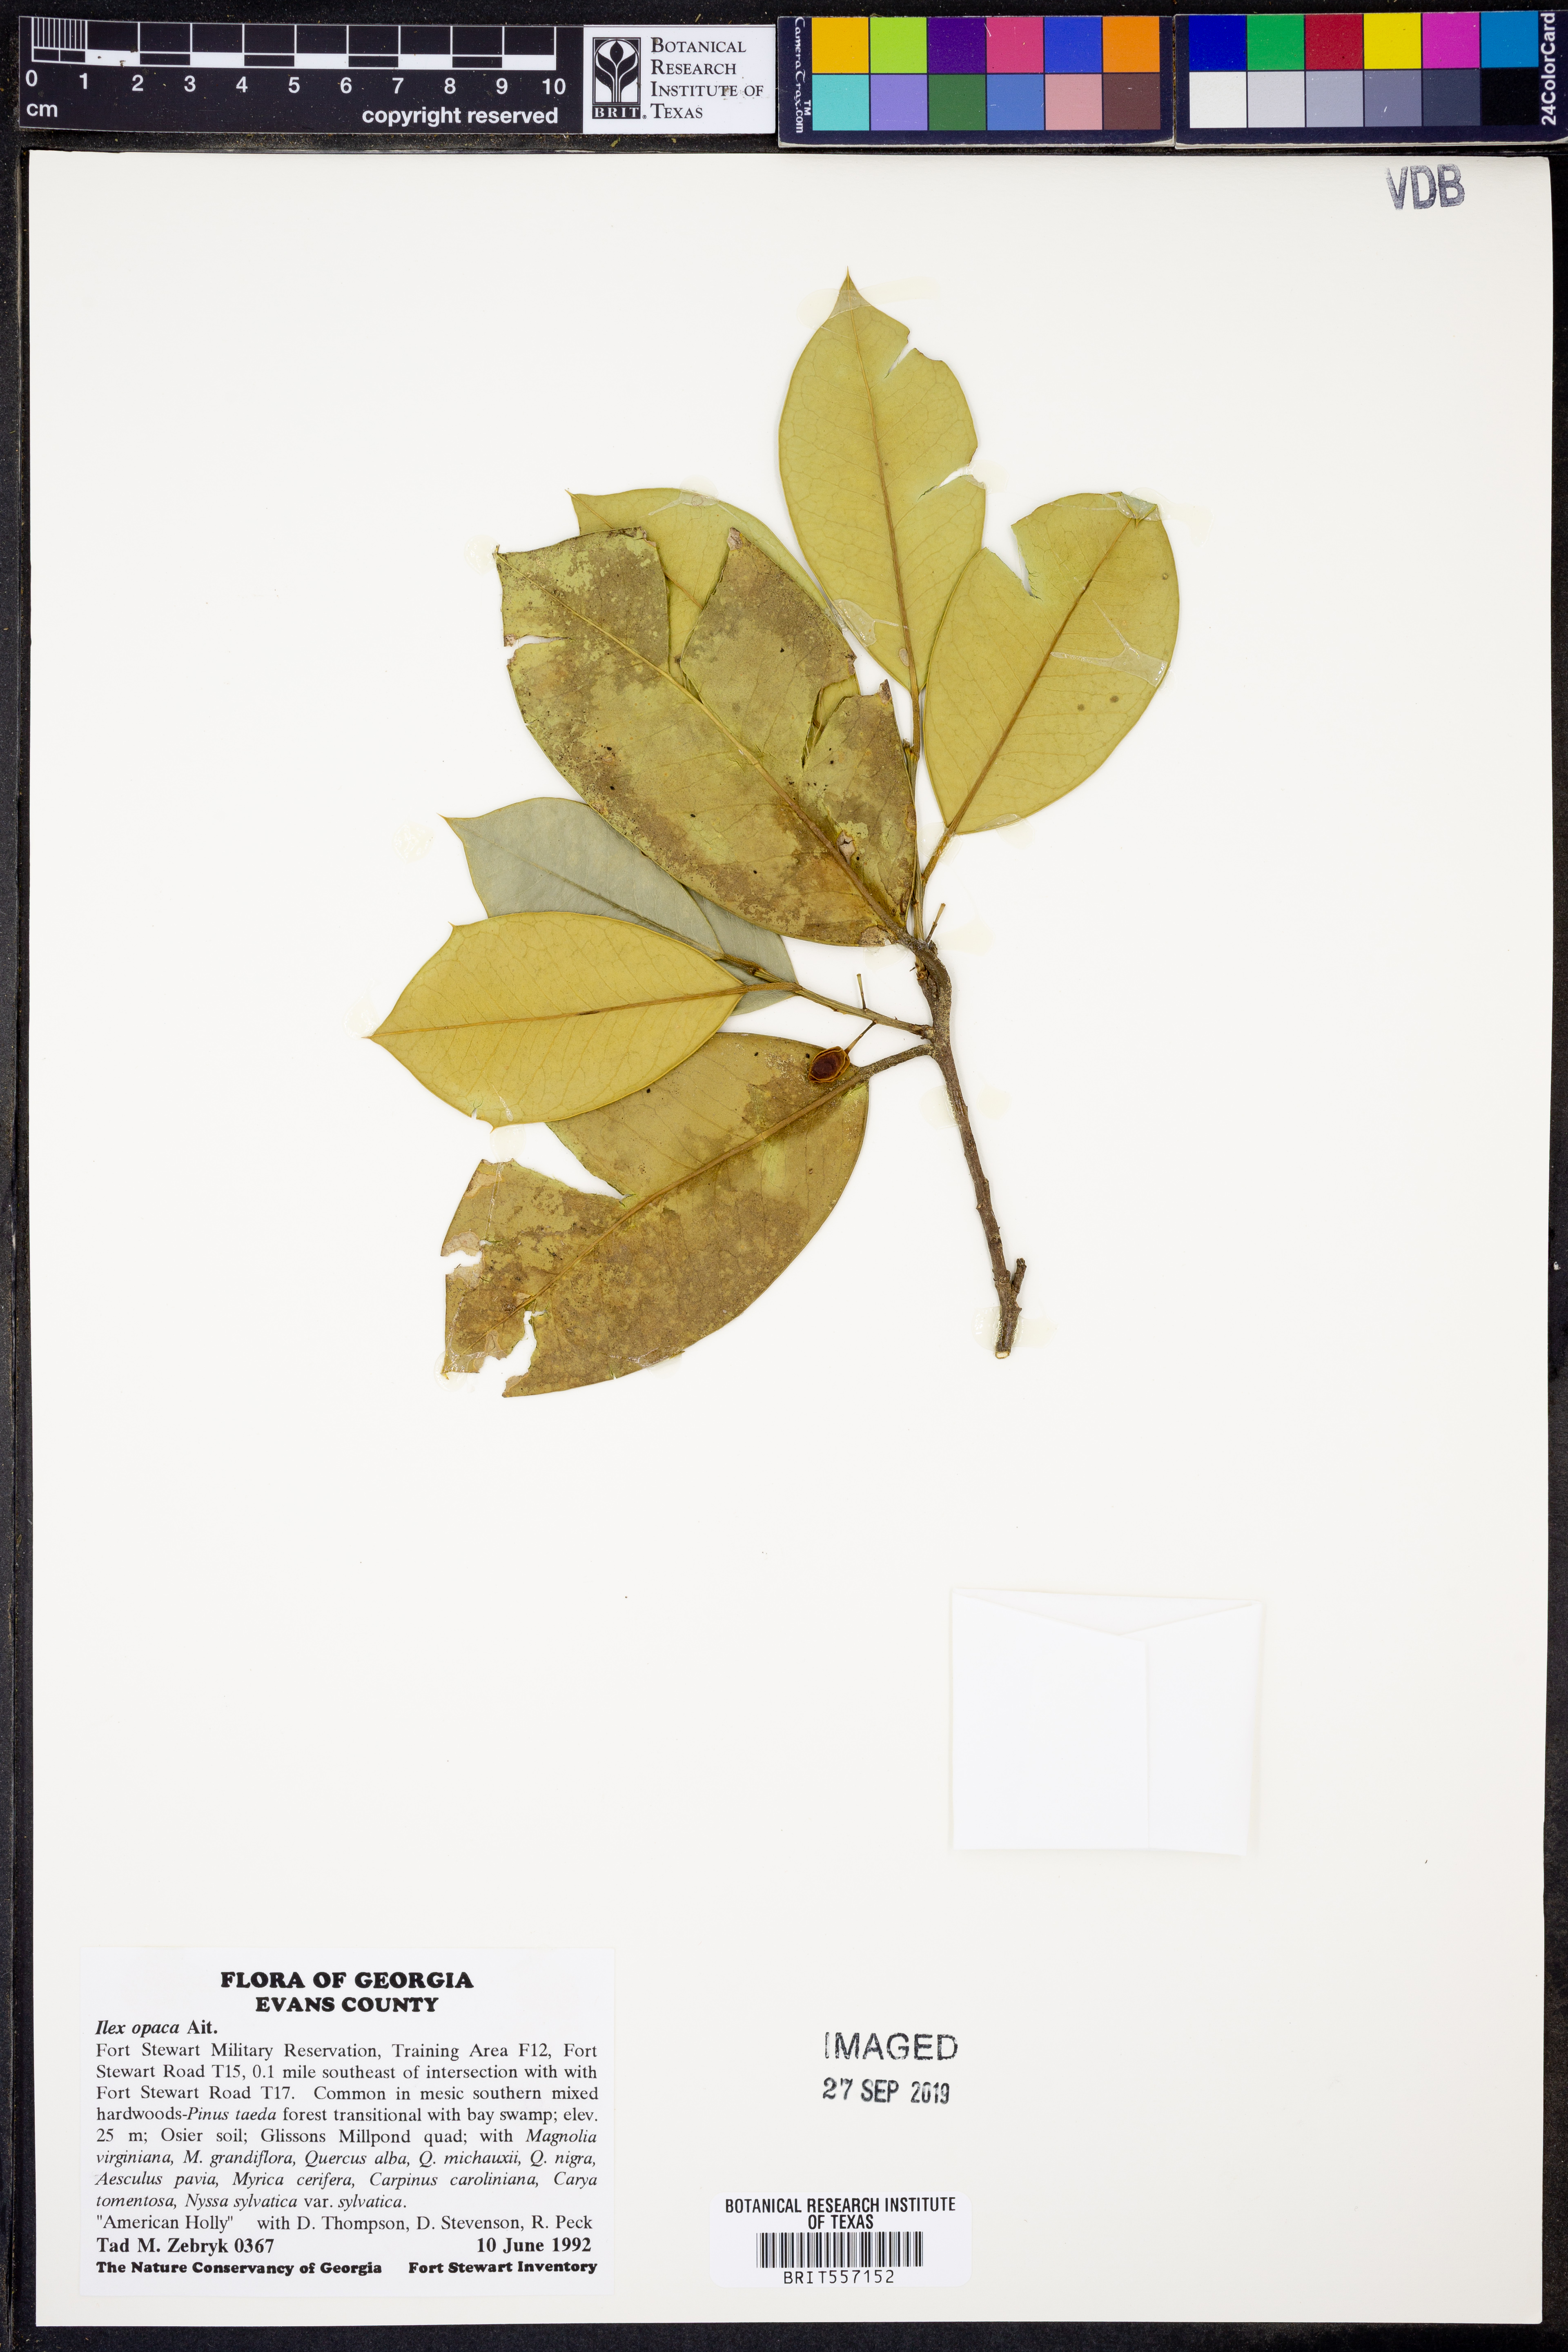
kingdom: Plantae
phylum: Tracheophyta
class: Magnoliopsida
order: Aquifoliales
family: Aquifoliaceae
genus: Ilex
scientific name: Ilex opaca
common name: American holly
